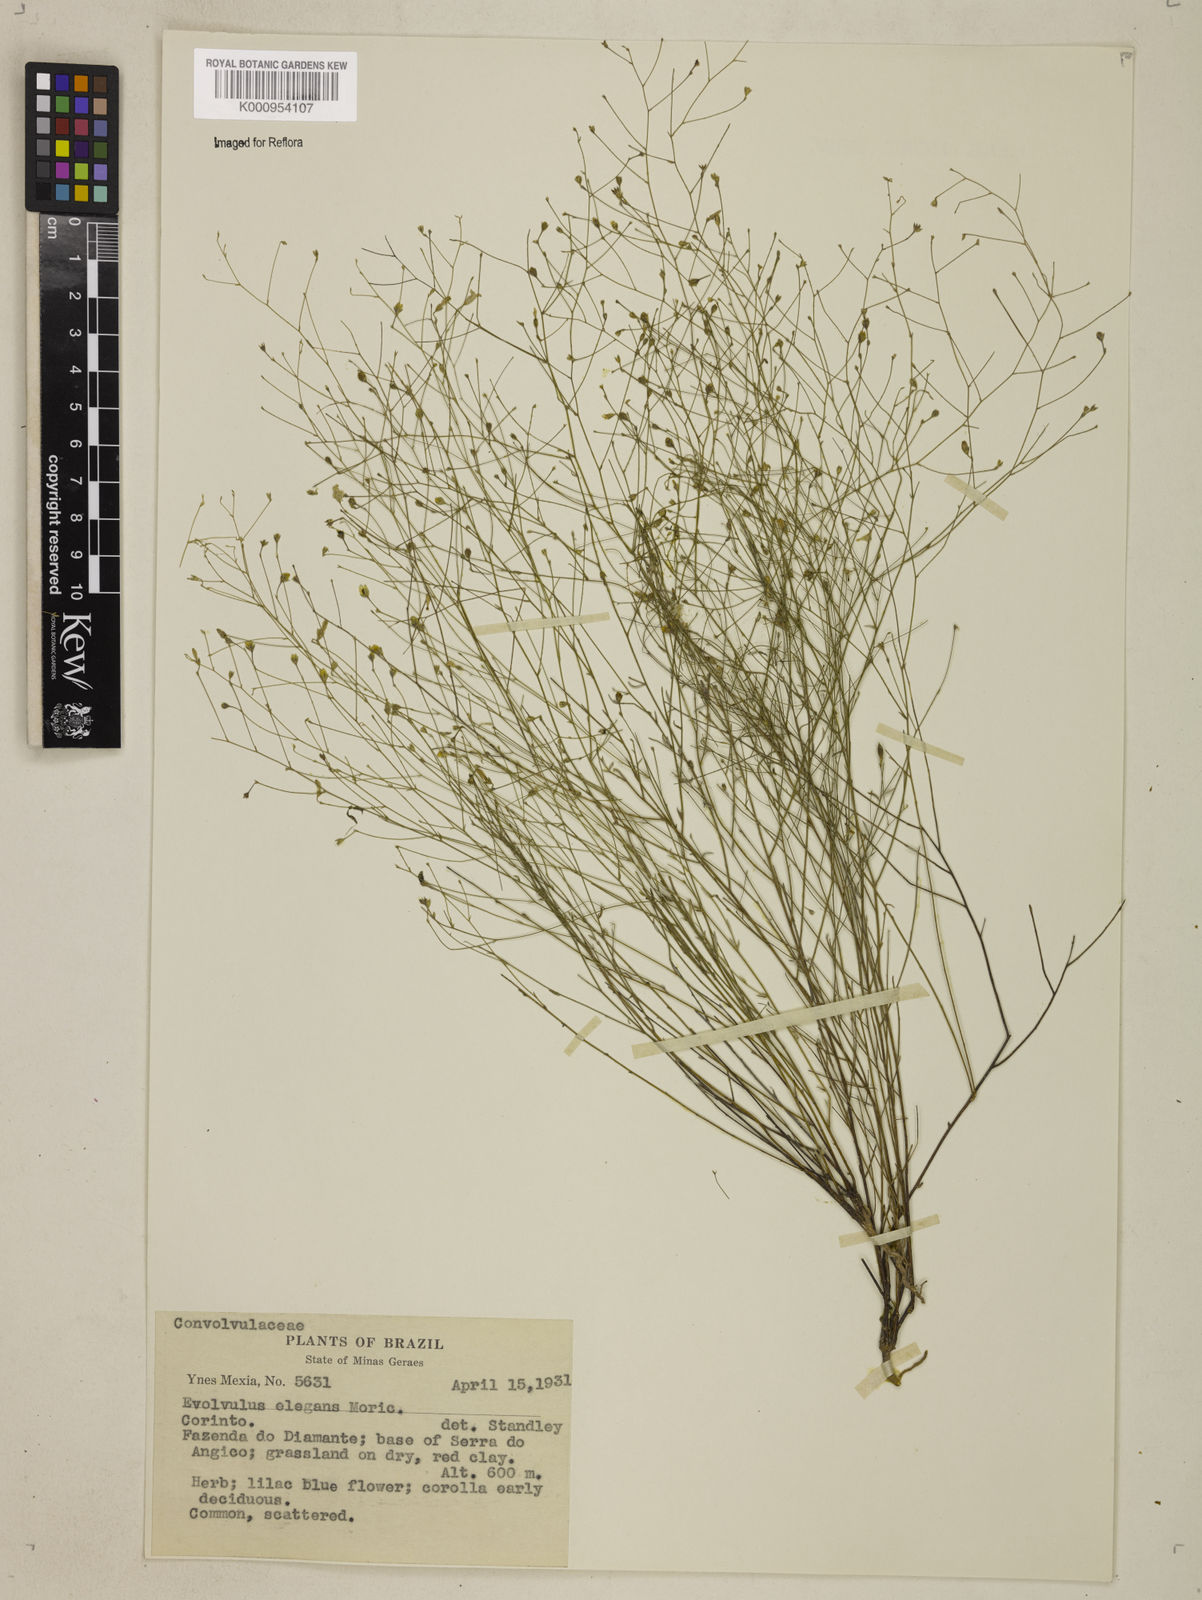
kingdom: Plantae
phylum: Tracheophyta
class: Magnoliopsida
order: Solanales
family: Convolvulaceae
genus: Evolvulus
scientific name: Evolvulus elegans
